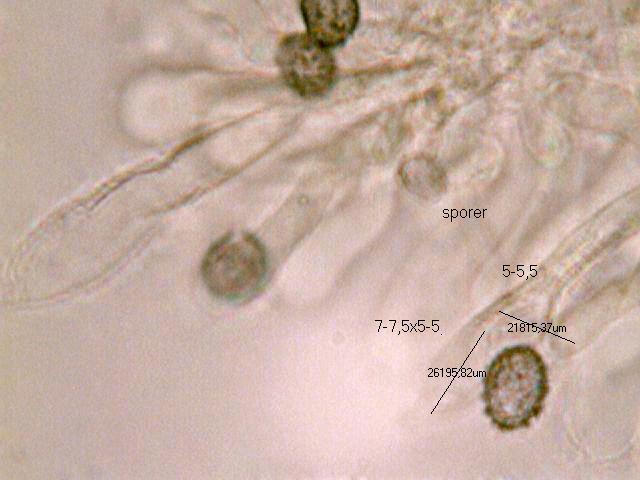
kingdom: Fungi
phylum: Basidiomycota
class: Agaricomycetes
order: Russulales
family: Russulaceae
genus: Russula
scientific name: Russula amoenolens
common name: skarp kam-skørhat
